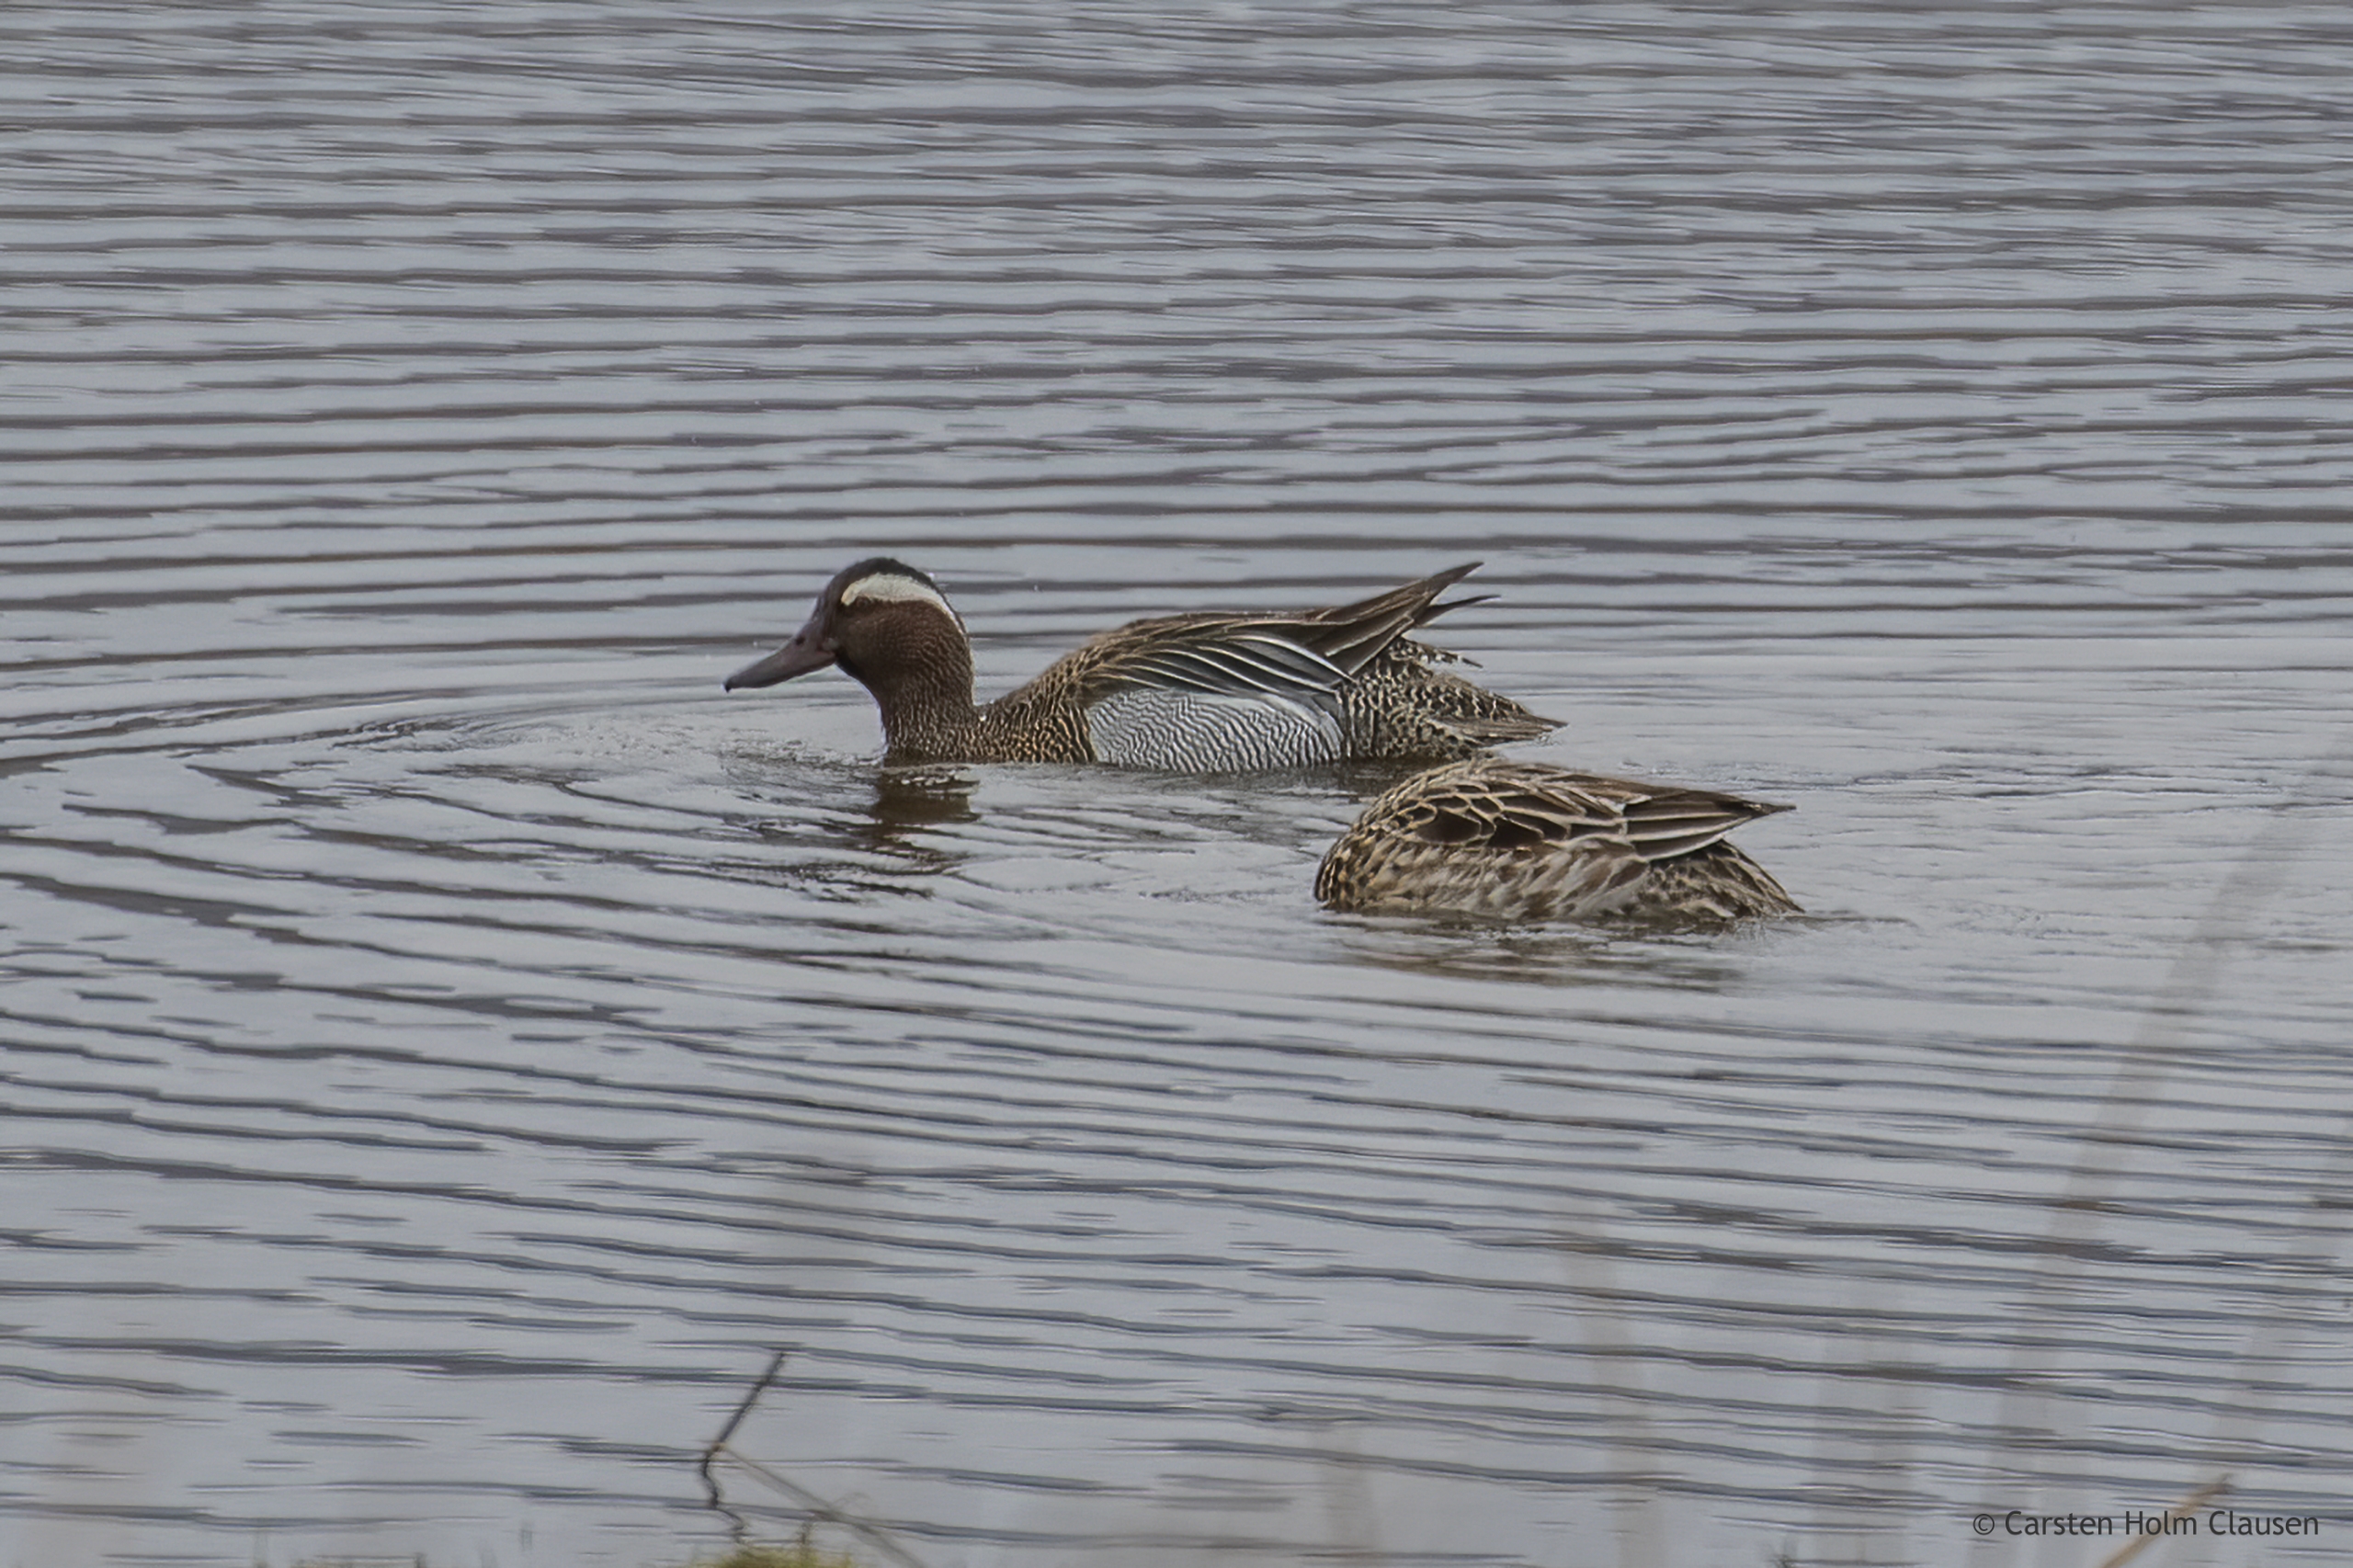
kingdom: Animalia
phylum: Chordata
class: Aves
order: Anseriformes
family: Anatidae
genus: Spatula
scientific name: Spatula querquedula
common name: Atlingand
